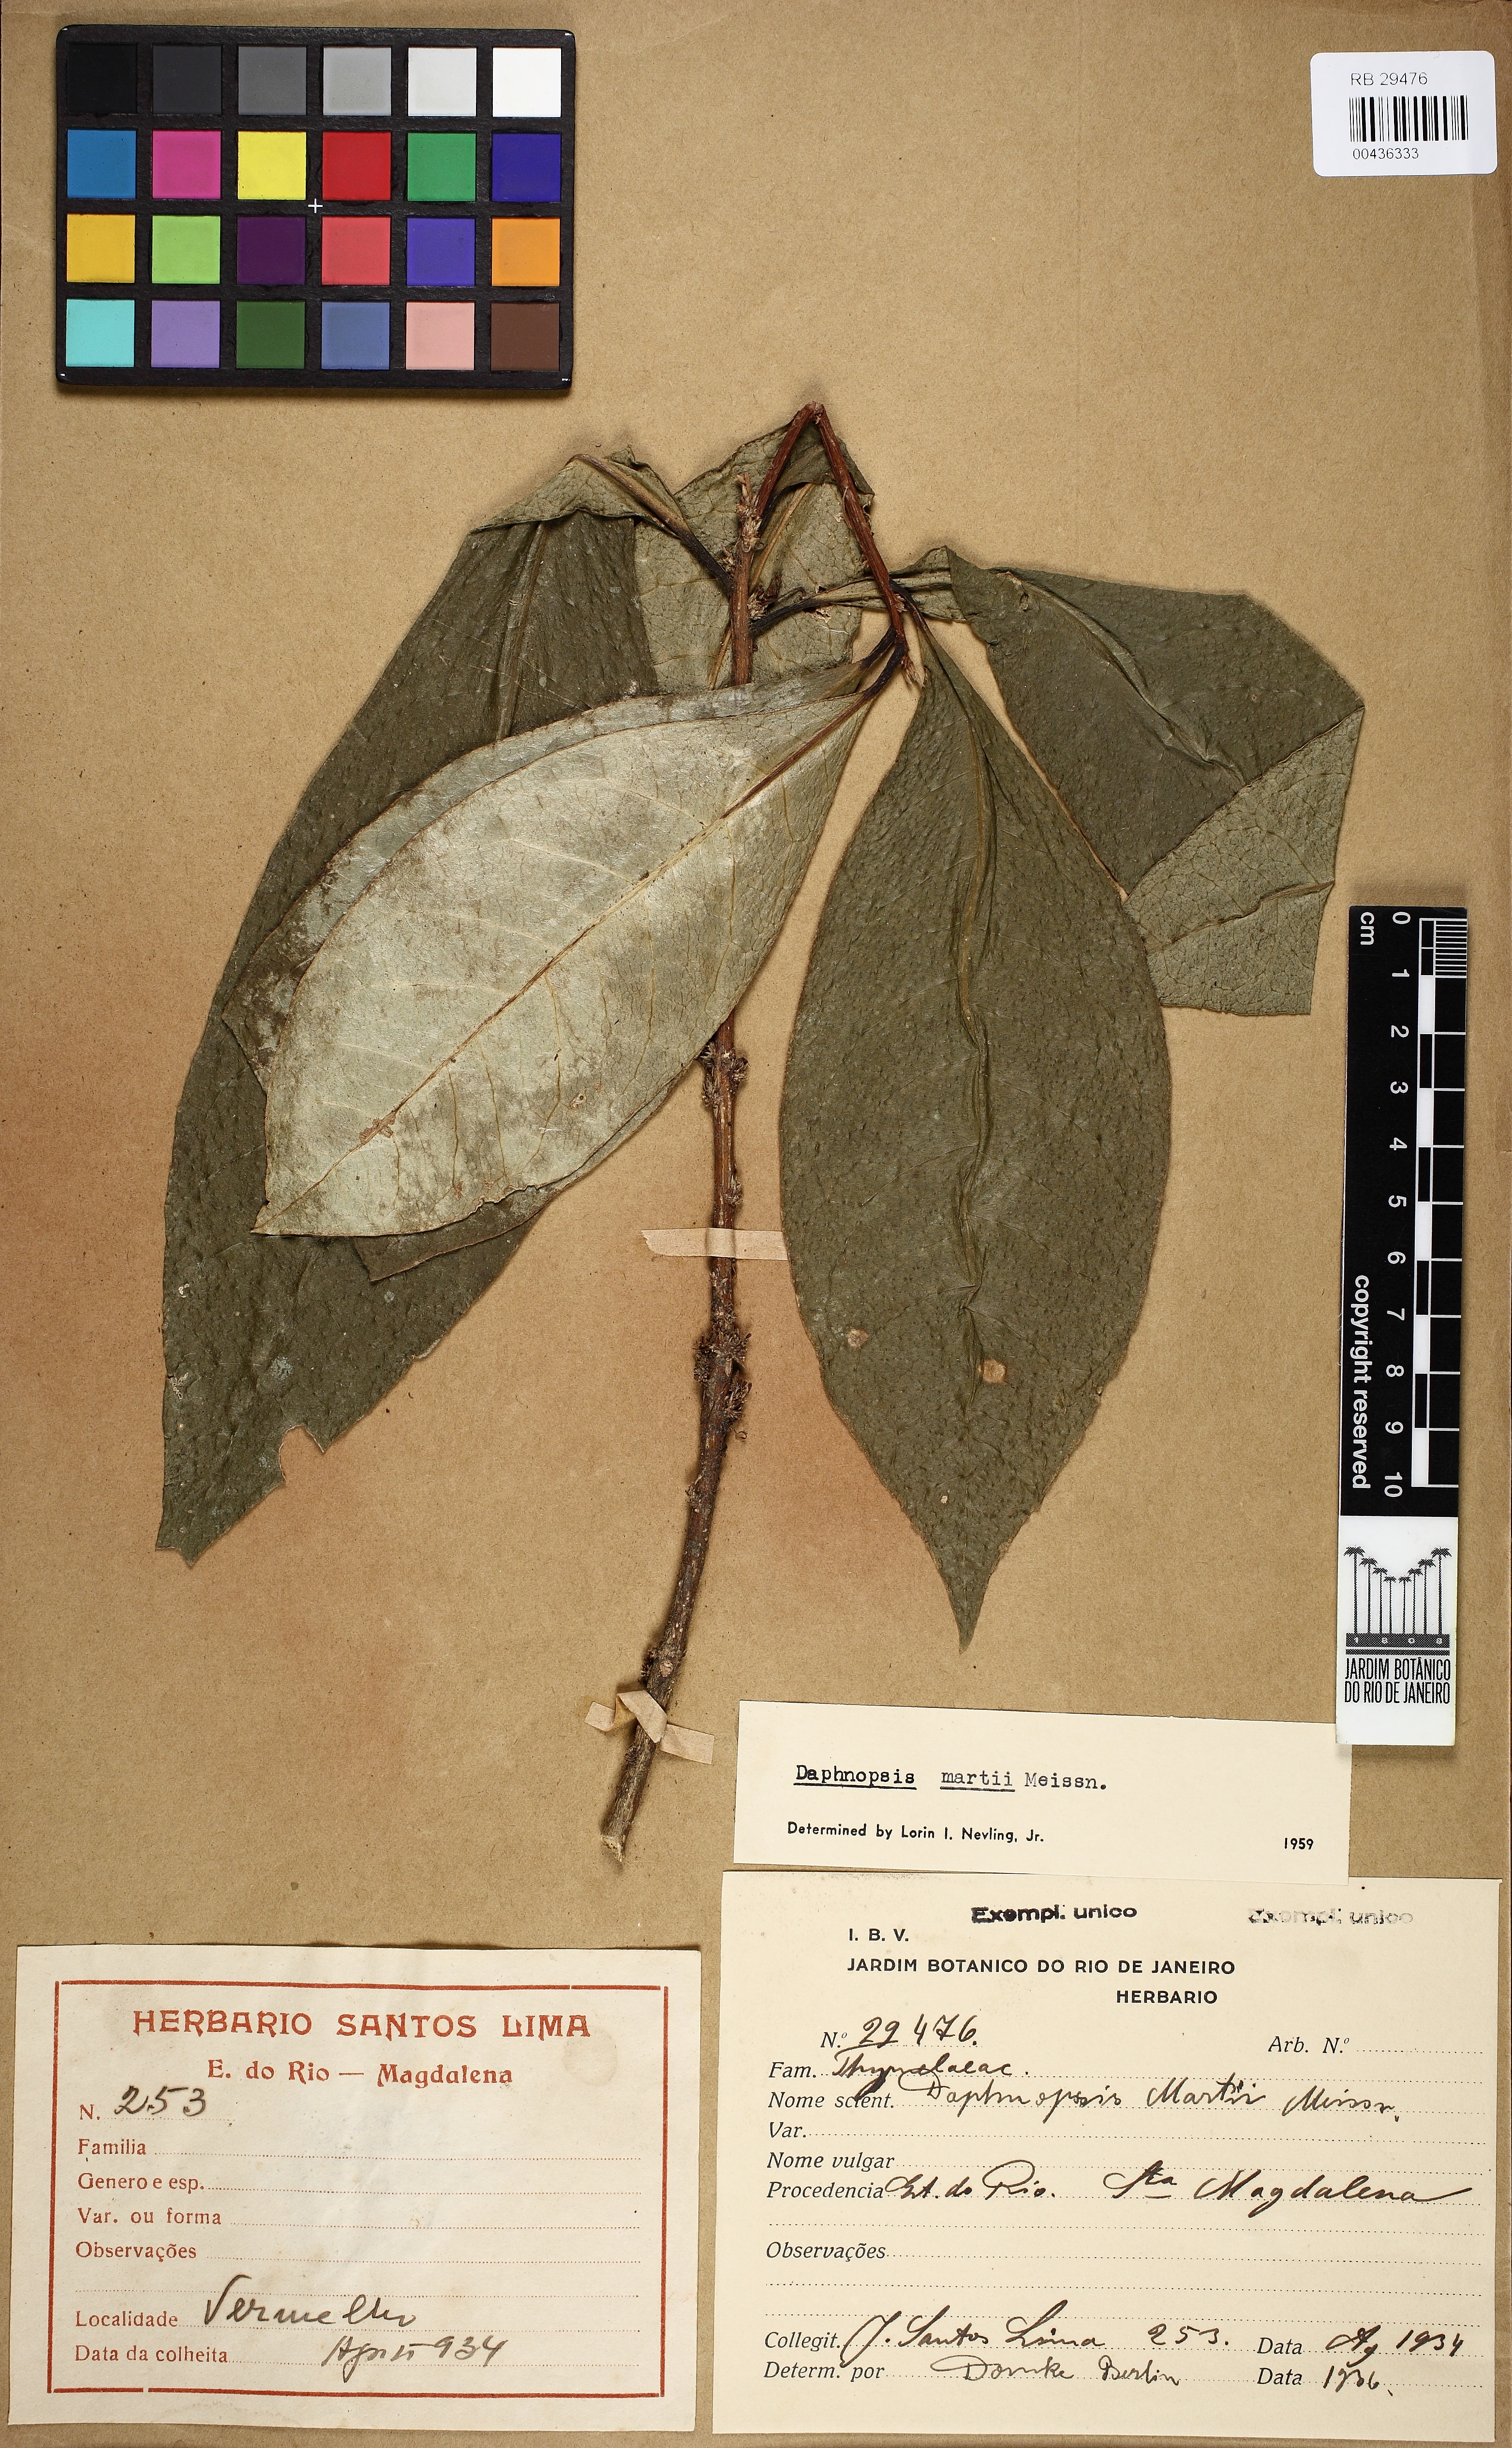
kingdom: Plantae
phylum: Tracheophyta
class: Magnoliopsida
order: Malvales
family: Thymelaeaceae
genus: Daphnopsis
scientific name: Daphnopsis martii
